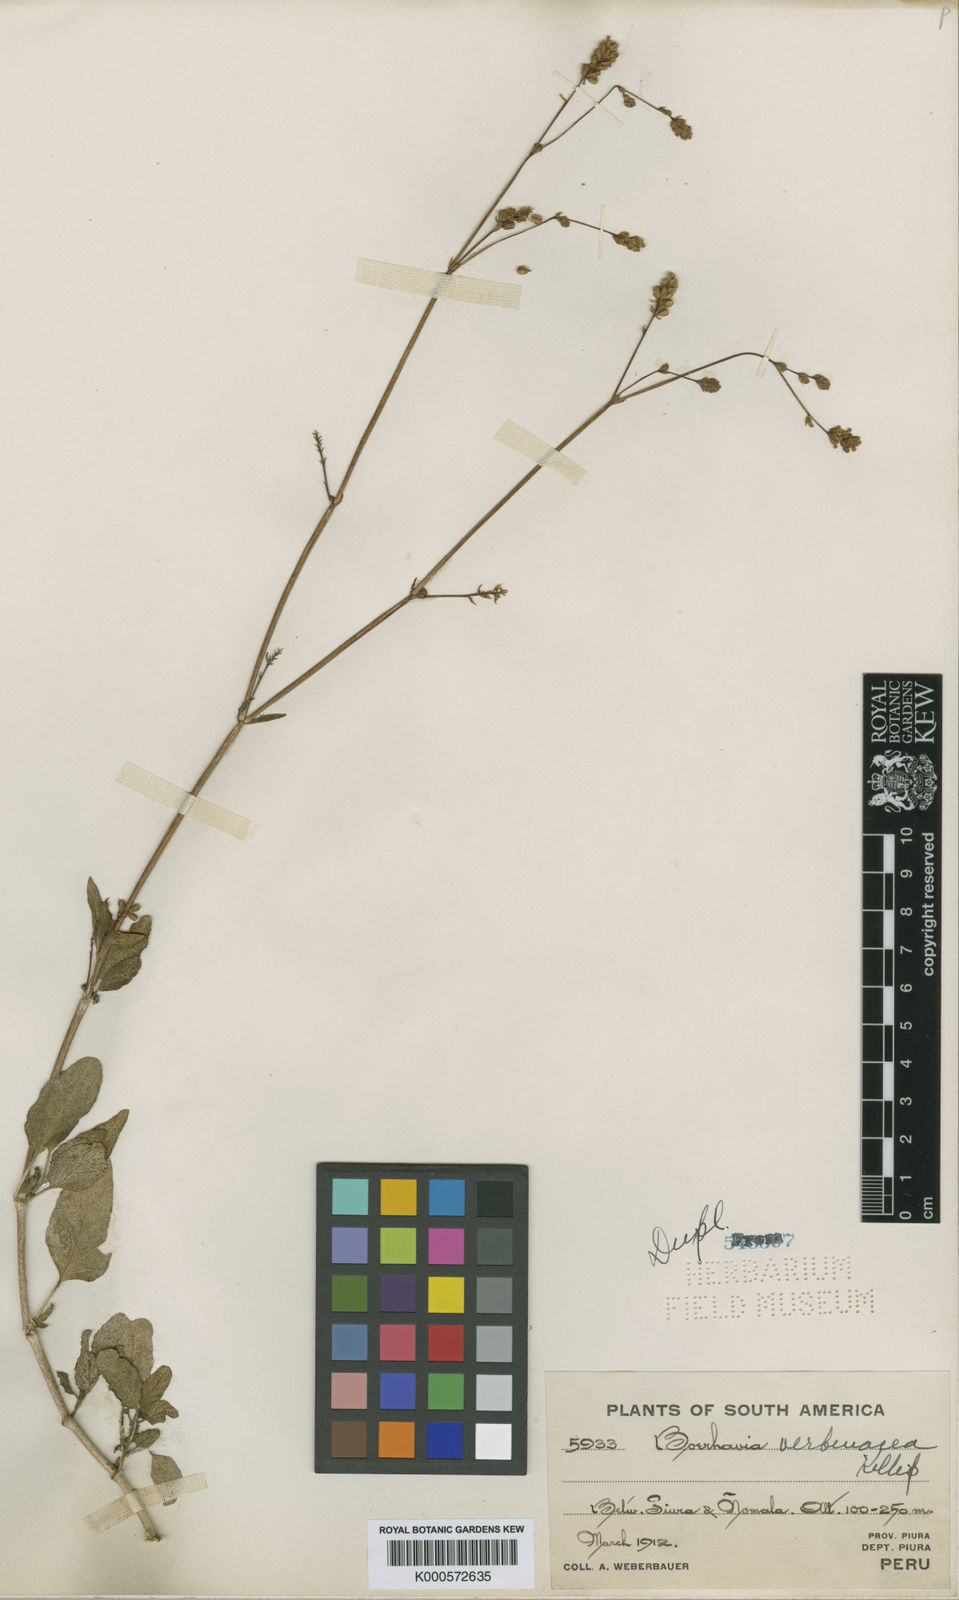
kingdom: Plantae
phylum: Tracheophyta
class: Magnoliopsida
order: Caryophyllales
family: Nyctaginaceae
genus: Boerhavia
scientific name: Boerhavia verbenacea
